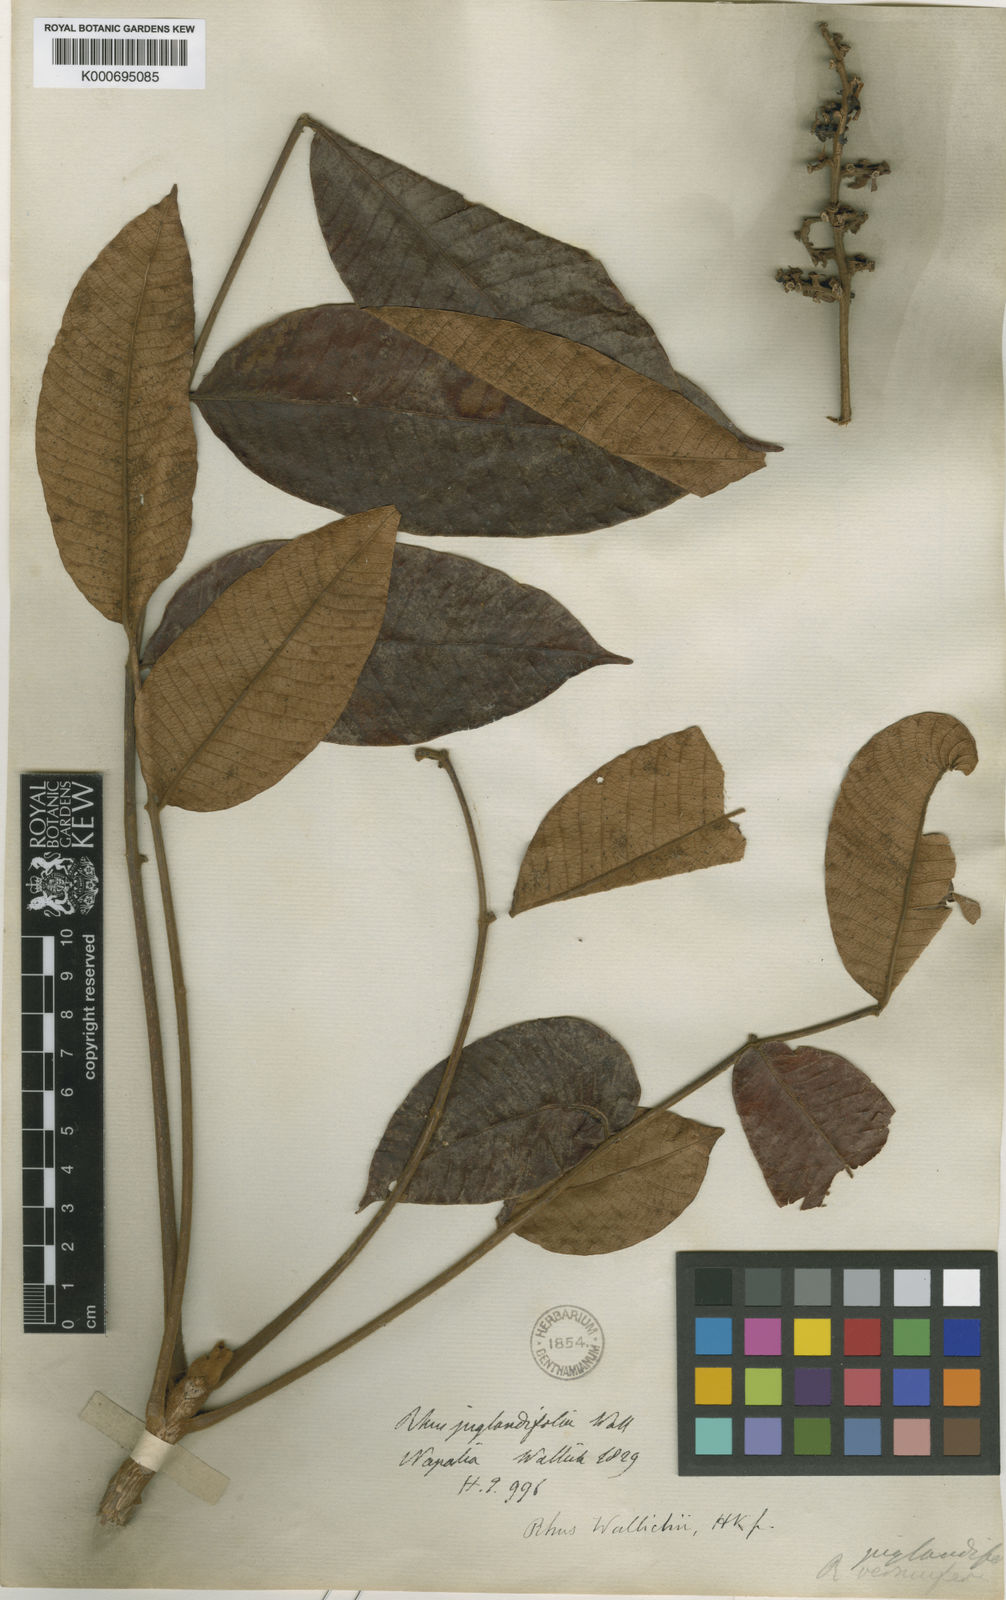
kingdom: Plantae
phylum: Tracheophyta
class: Magnoliopsida
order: Sapindales
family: Anacardiaceae
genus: Toxicodendron
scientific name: Toxicodendron wallichii
